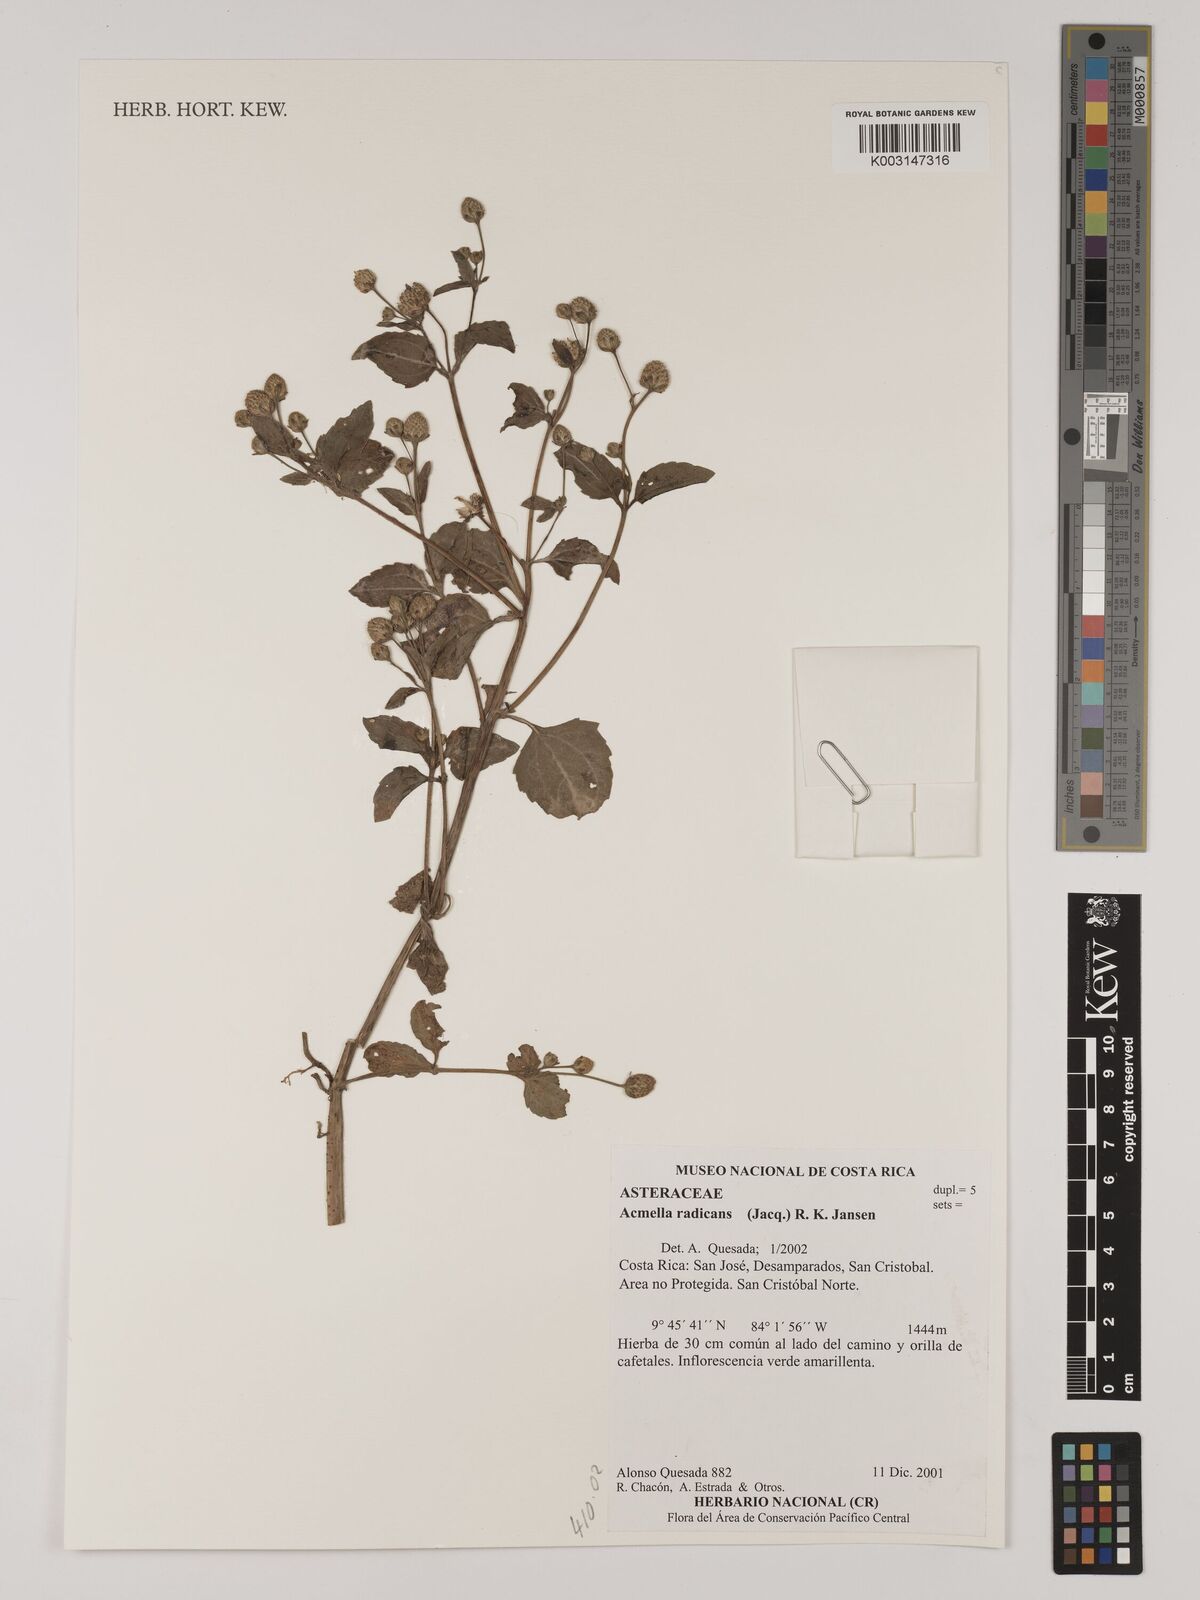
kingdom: Plantae
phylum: Tracheophyta
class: Magnoliopsida
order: Asterales
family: Asteraceae
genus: Acmella
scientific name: Acmella radicans
